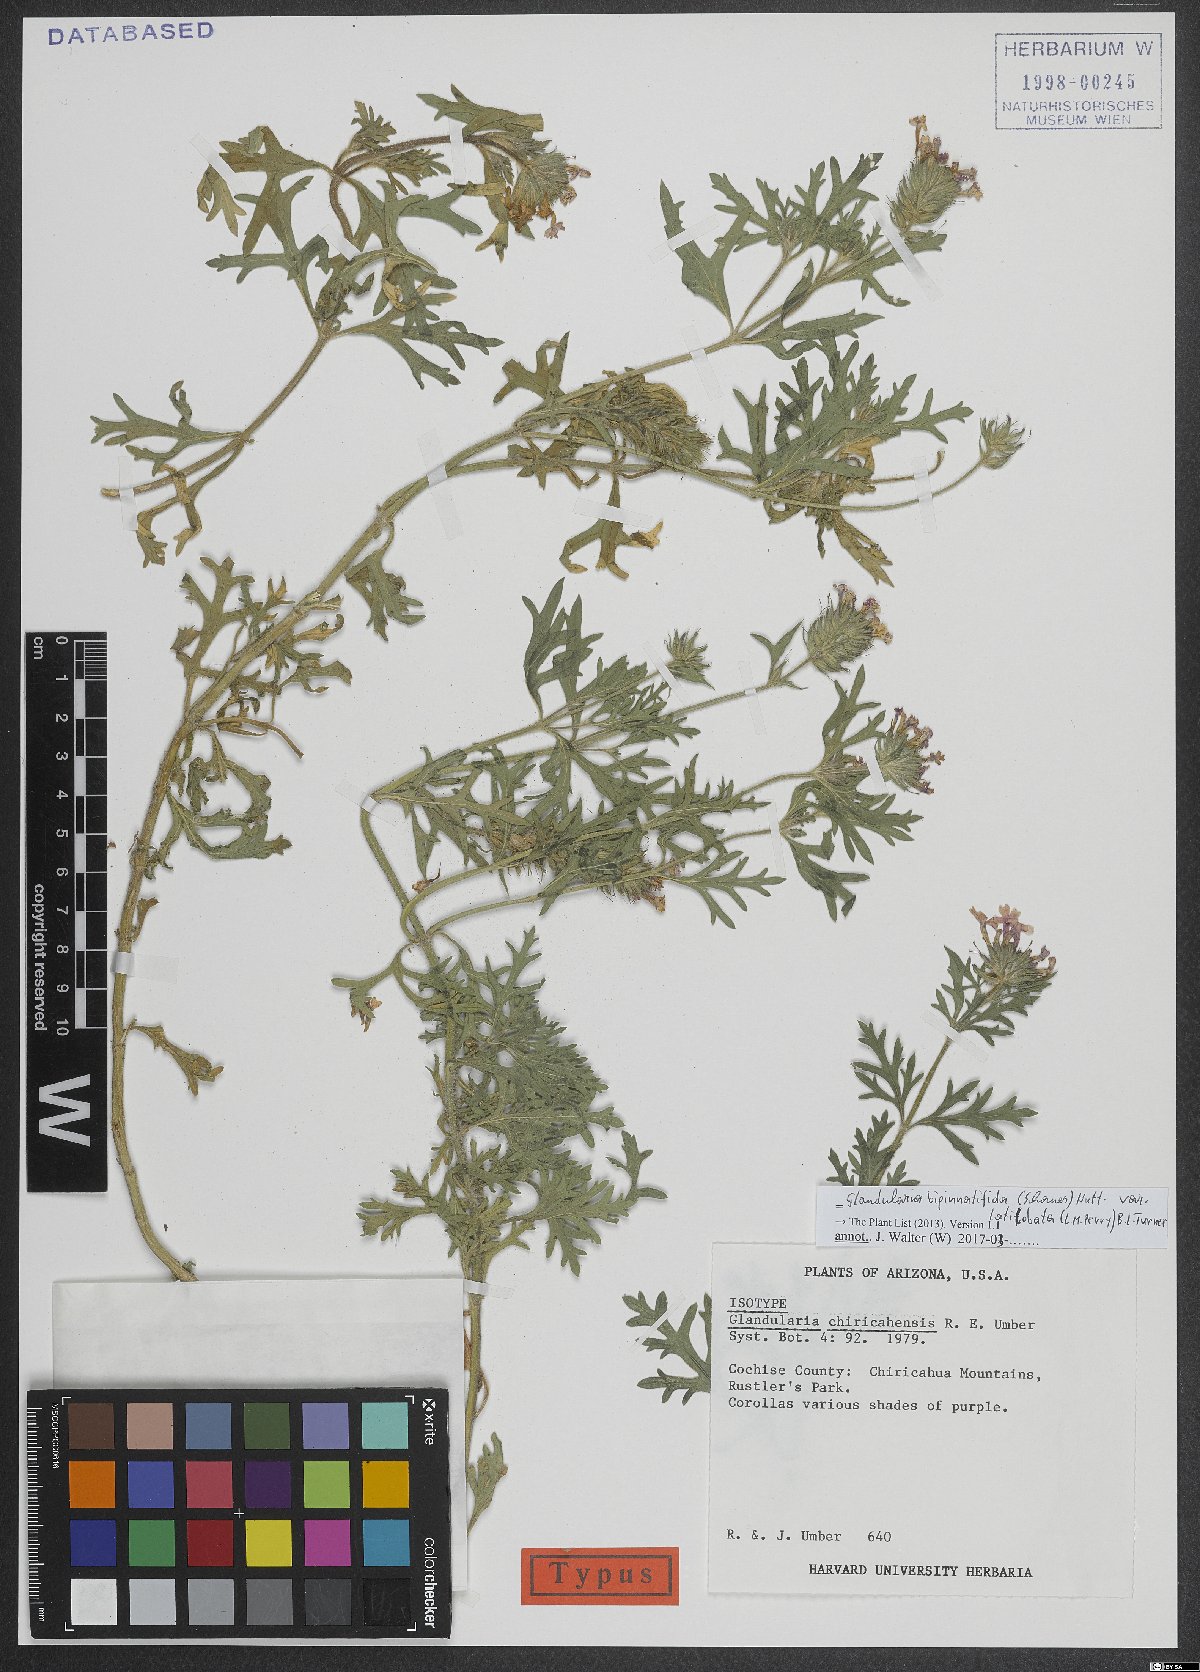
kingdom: Plantae
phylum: Tracheophyta
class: Magnoliopsida
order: Lamiales
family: Verbenaceae
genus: Verbena
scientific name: Verbena bipinnatifida
